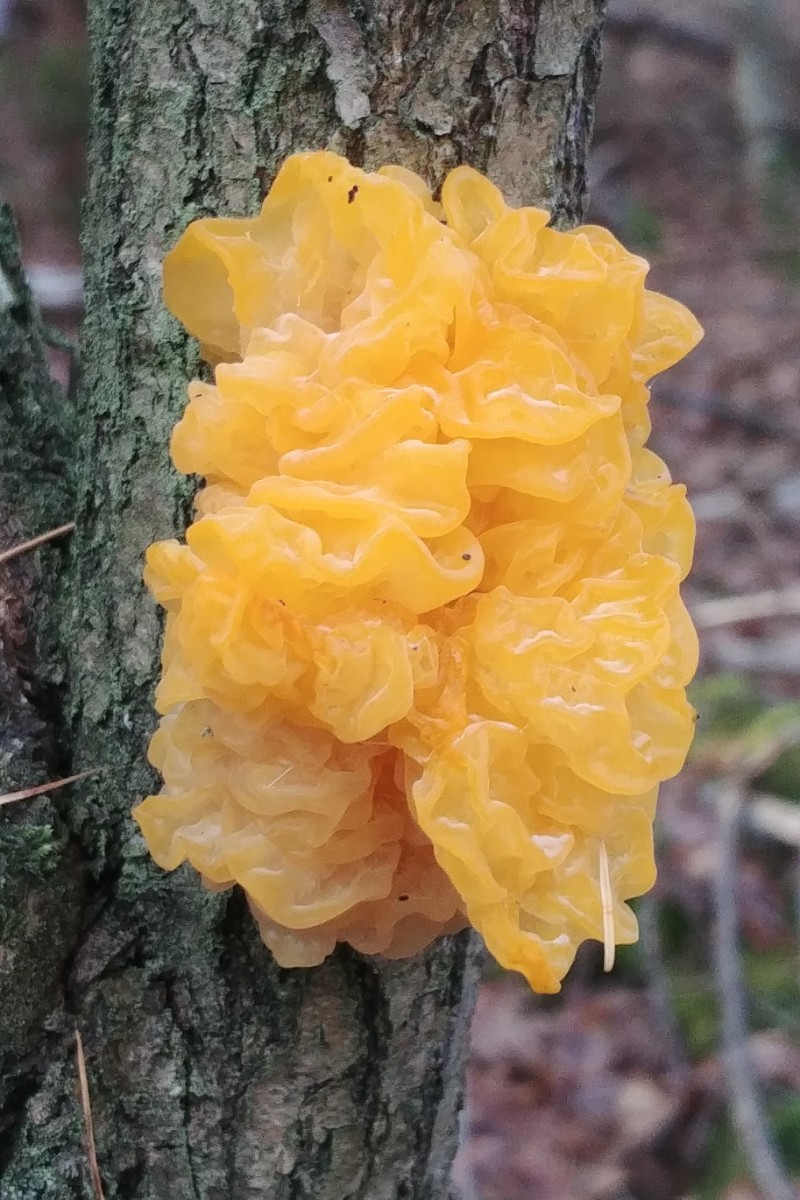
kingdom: Fungi
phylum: Basidiomycota
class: Tremellomycetes
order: Tremellales
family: Tremellaceae
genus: Tremella
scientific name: Tremella mesenterica
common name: gul bævresvamp
